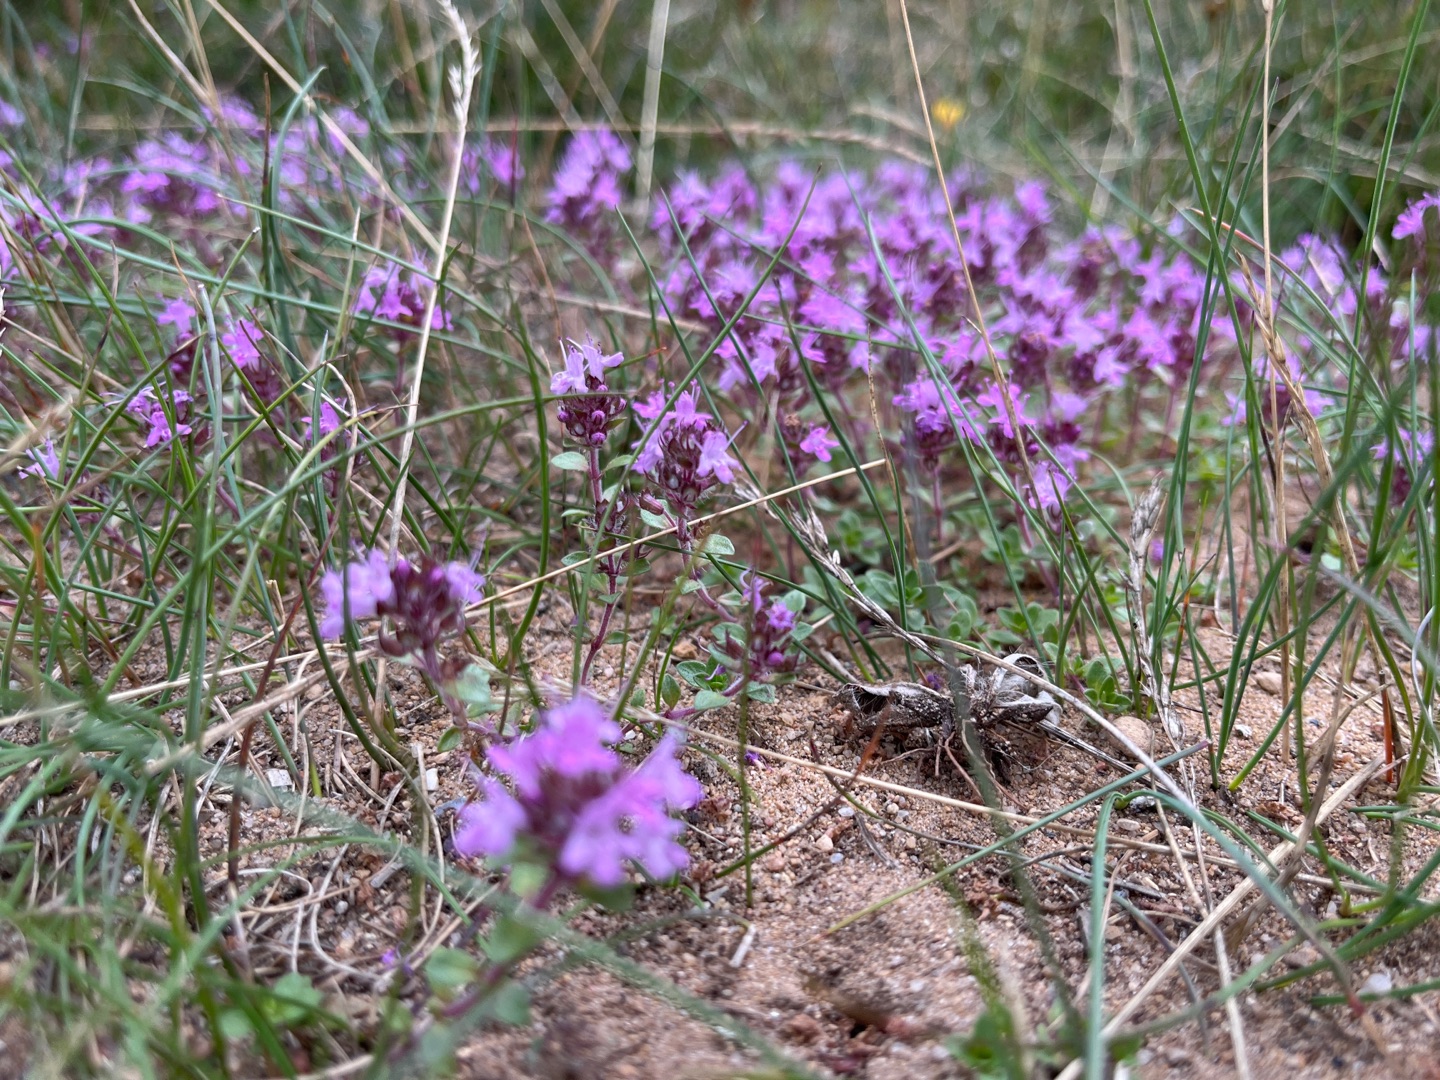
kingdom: Plantae
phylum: Tracheophyta
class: Magnoliopsida
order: Lamiales
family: Lamiaceae
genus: Thymus
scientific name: Thymus serpyllum
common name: Smalbladet timian
